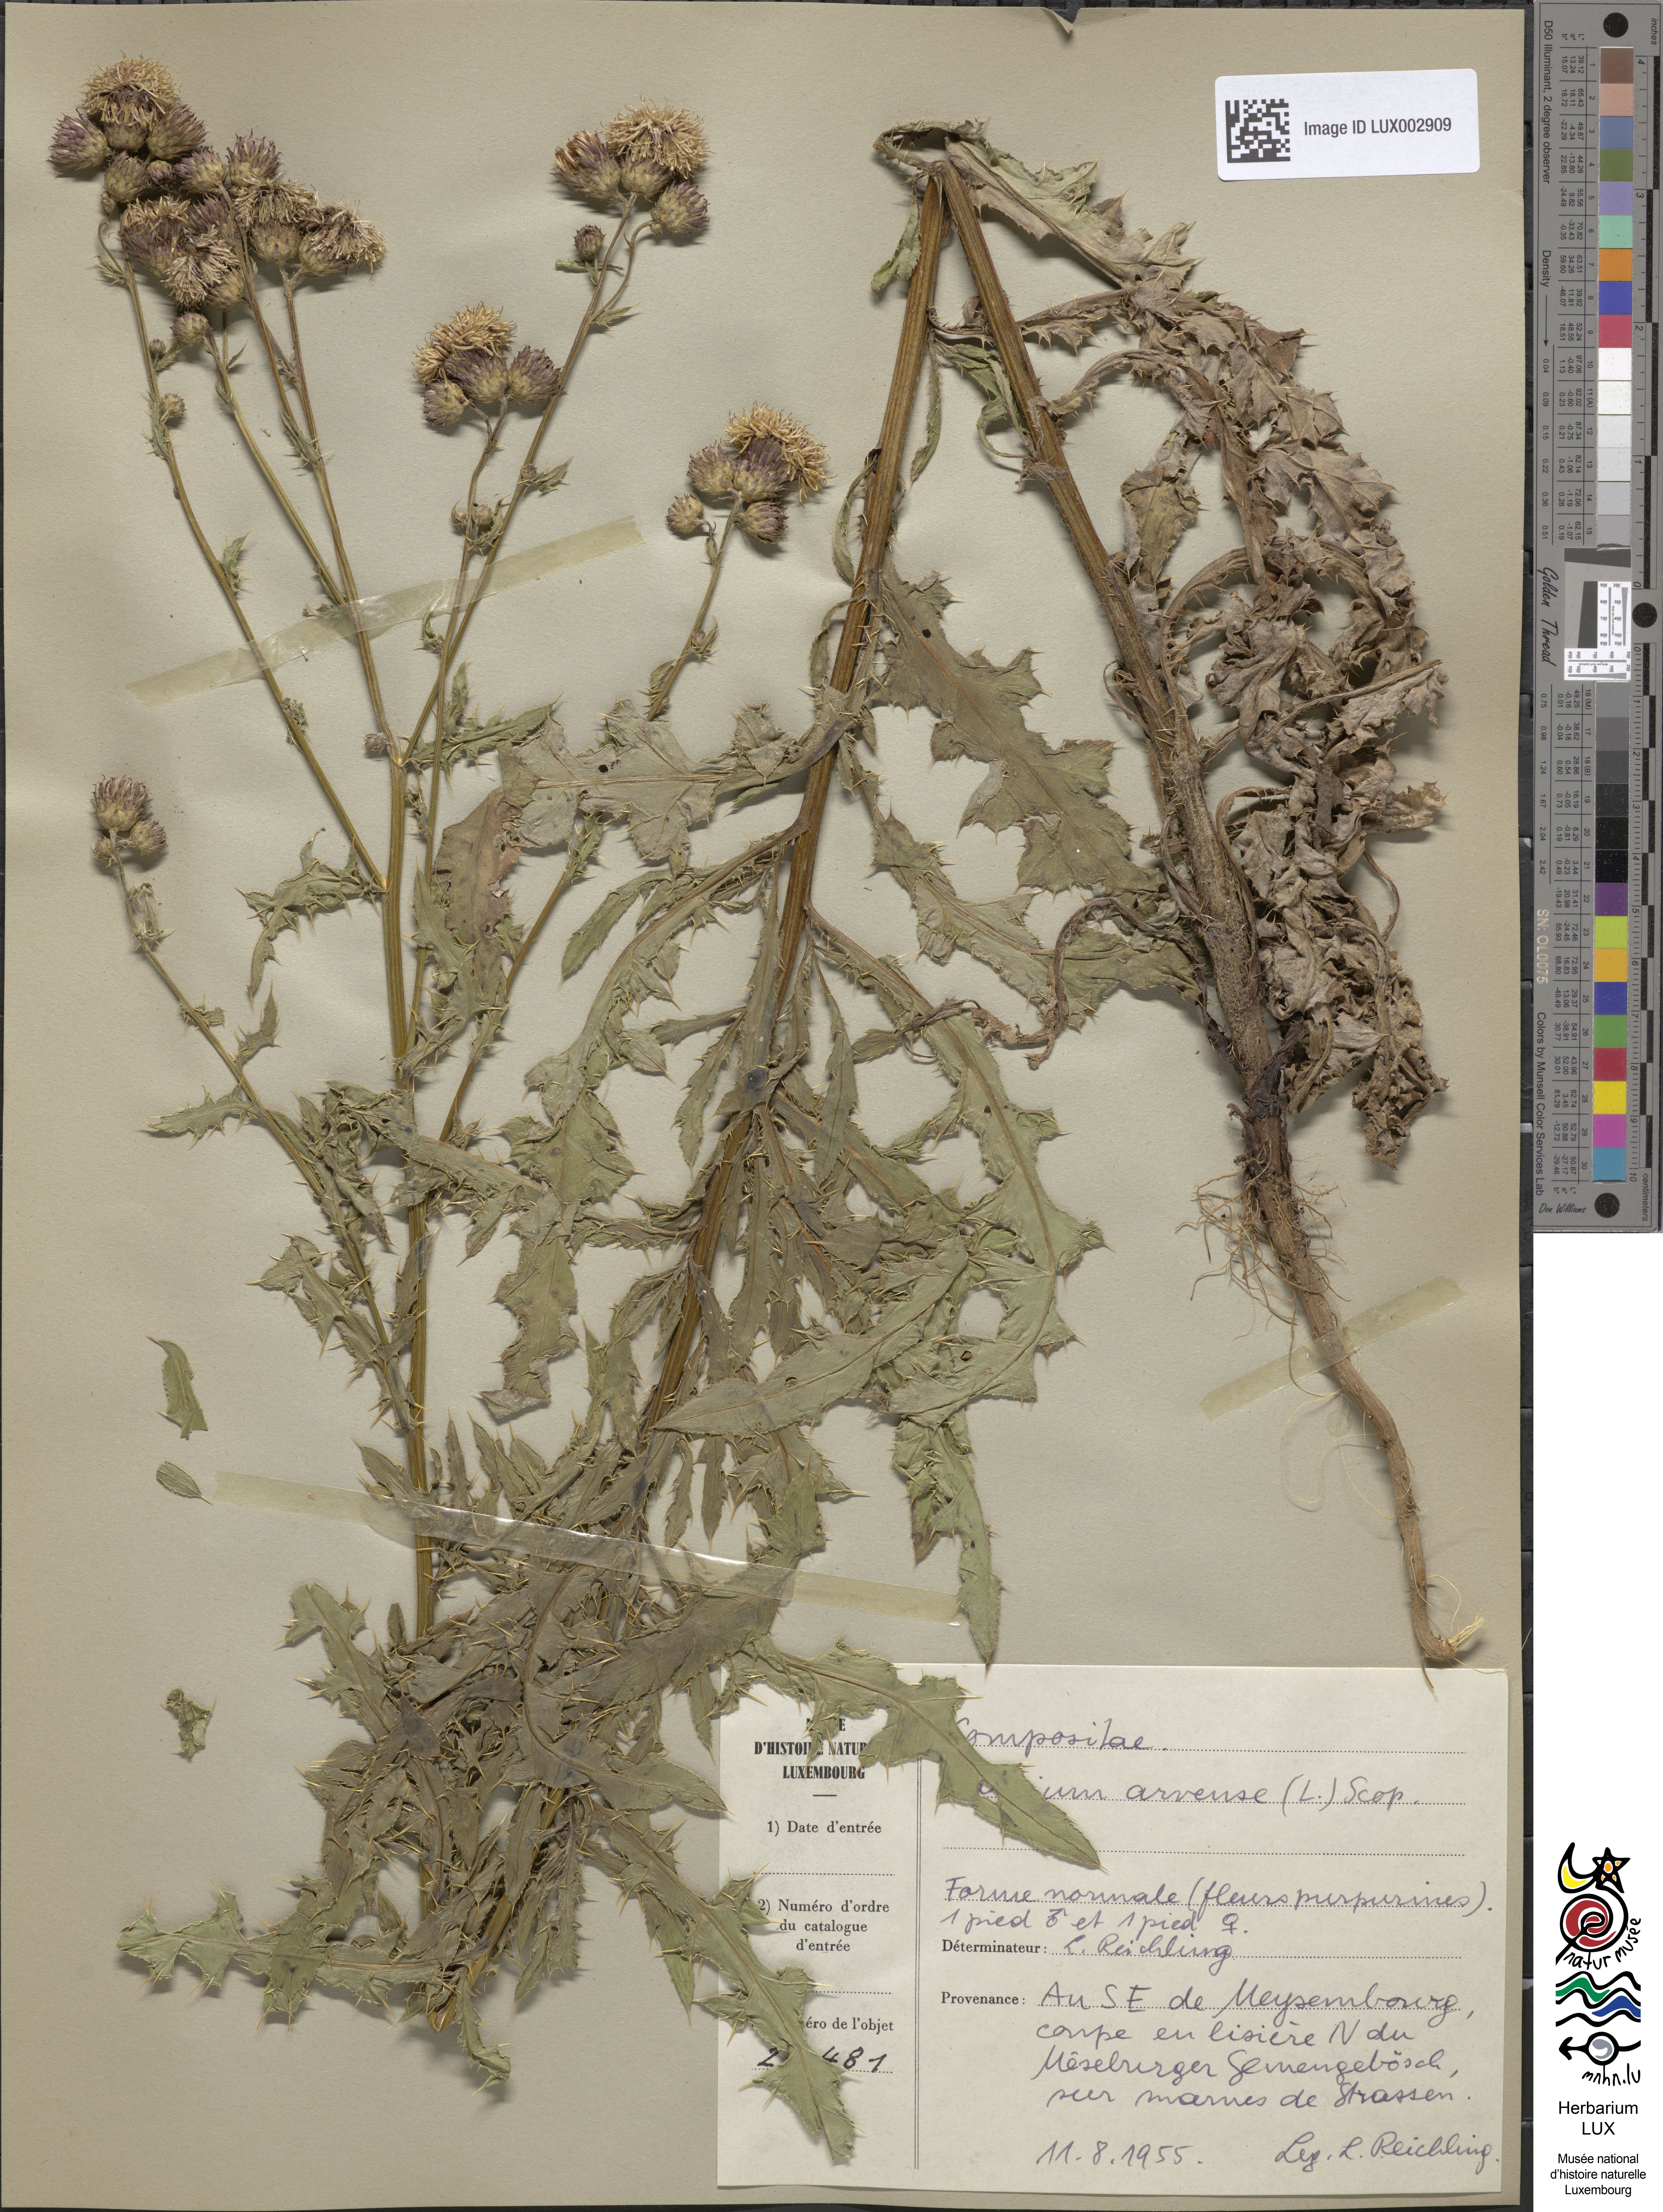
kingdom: Plantae
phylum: Tracheophyta
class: Magnoliopsida
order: Asterales
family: Asteraceae
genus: Cirsium
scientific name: Cirsium arvense
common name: Creeping thistle
